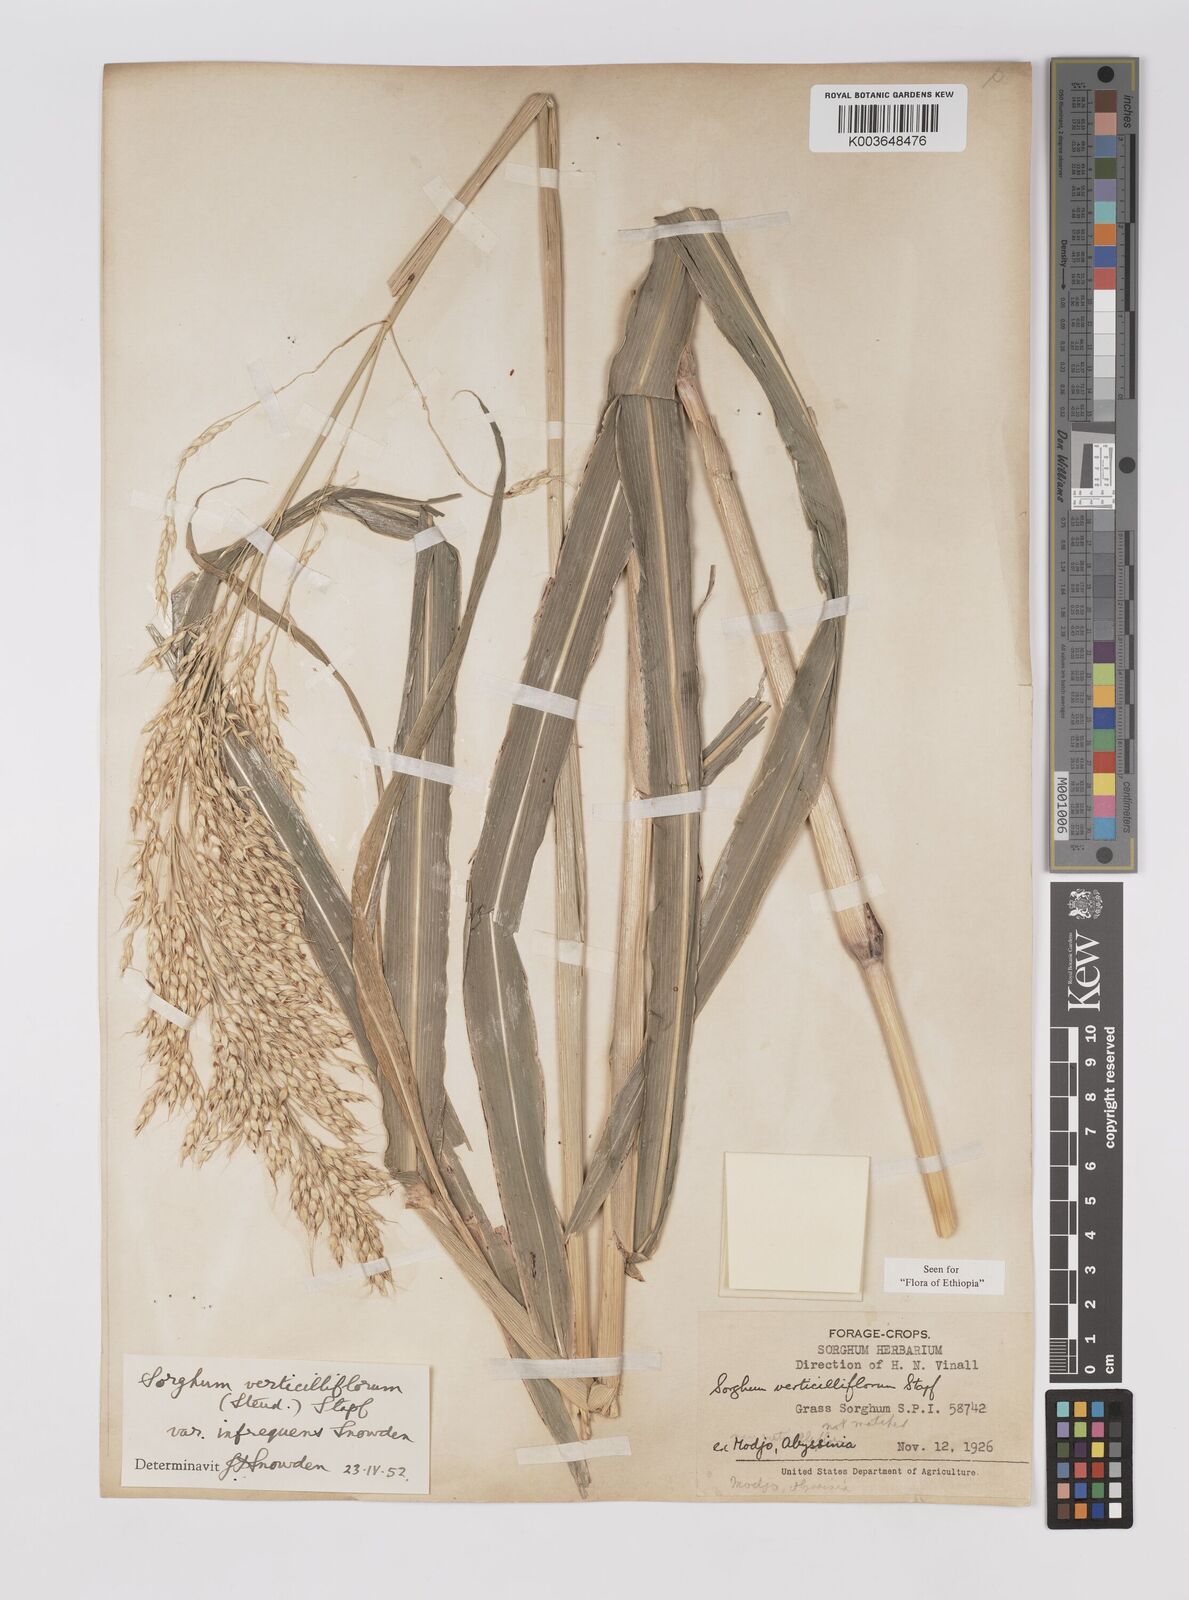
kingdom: Plantae
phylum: Tracheophyta
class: Liliopsida
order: Poales
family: Poaceae
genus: Sorghum
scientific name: Sorghum arundinaceum
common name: Sorghum
